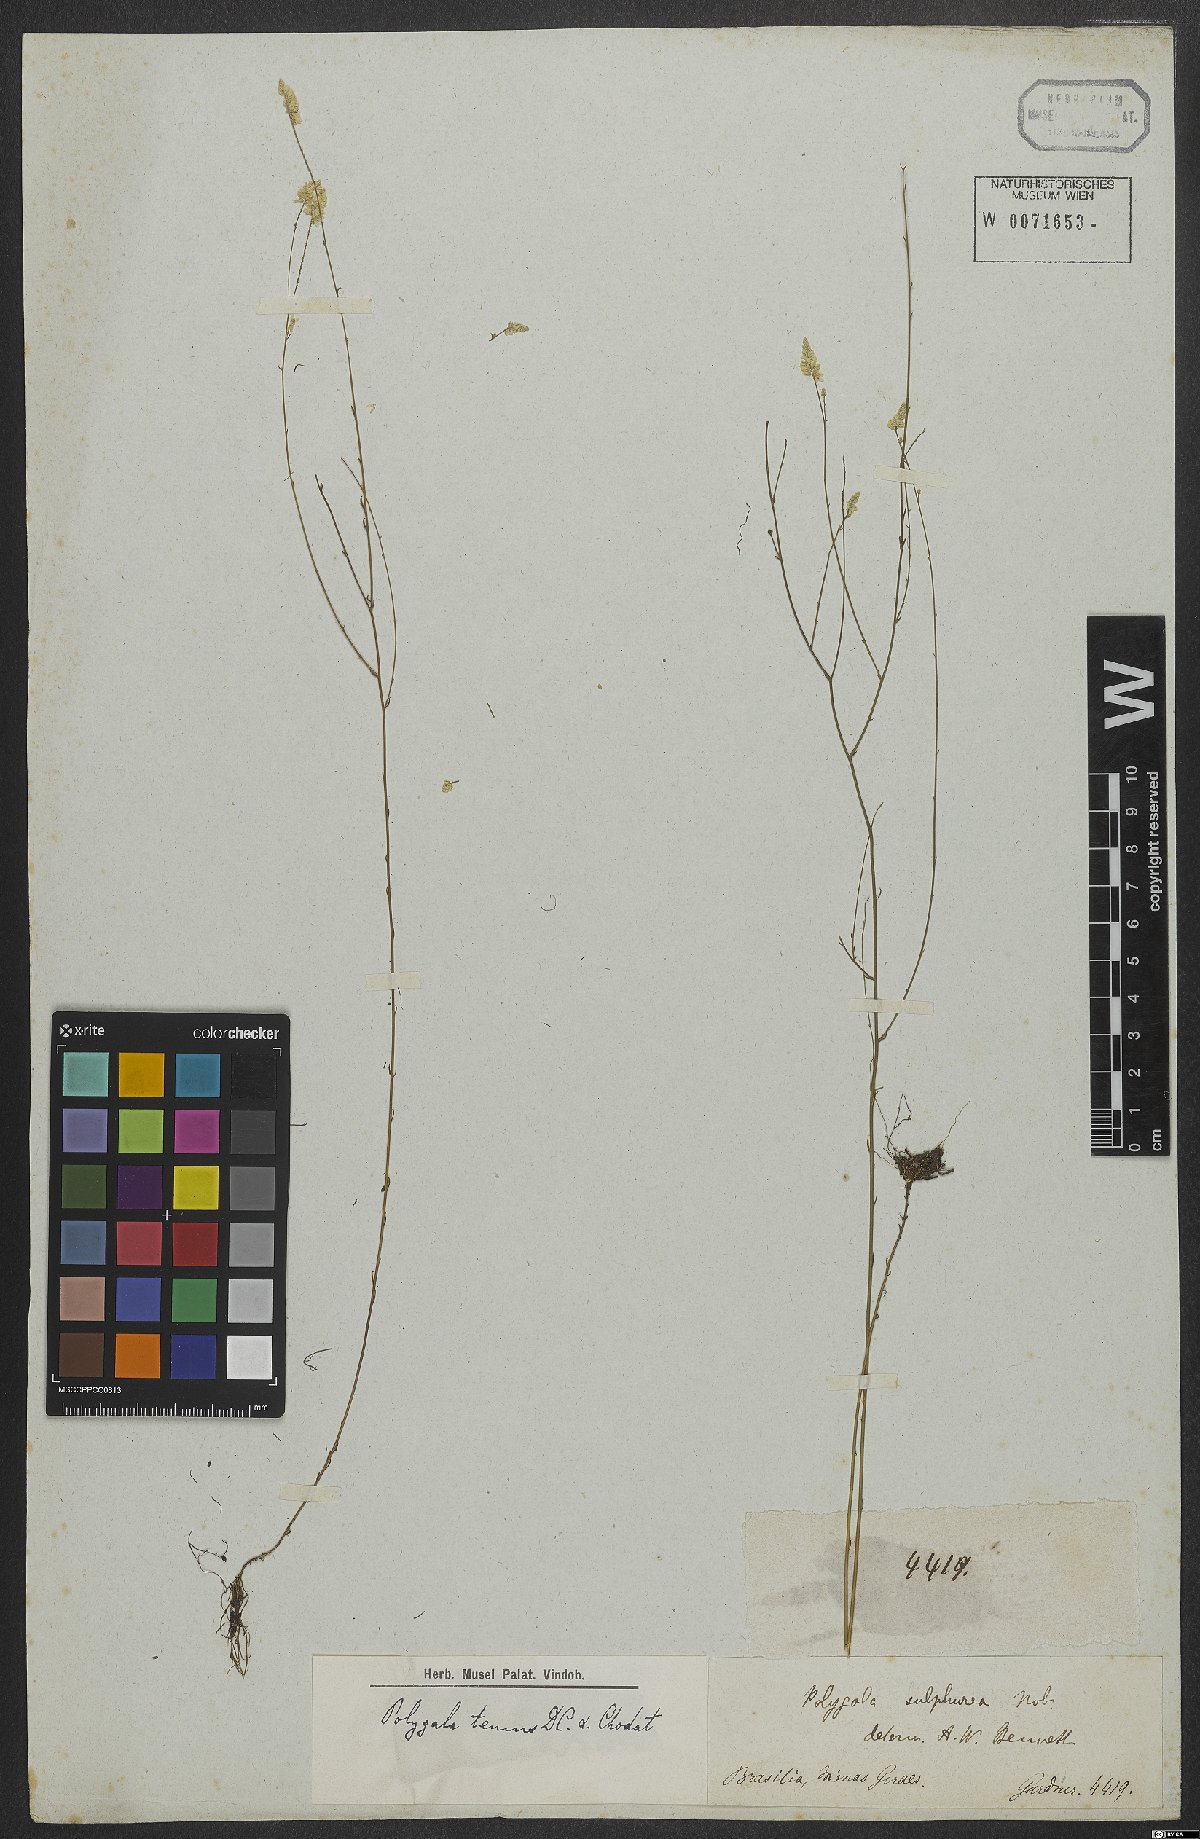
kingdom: Plantae
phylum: Tracheophyta
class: Magnoliopsida
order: Fabales
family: Polygalaceae
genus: Polygala
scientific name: Polygala rarifolia
